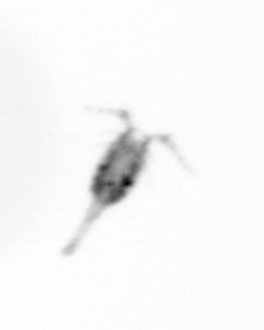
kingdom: Animalia
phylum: Arthropoda
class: Copepoda
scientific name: Copepoda
